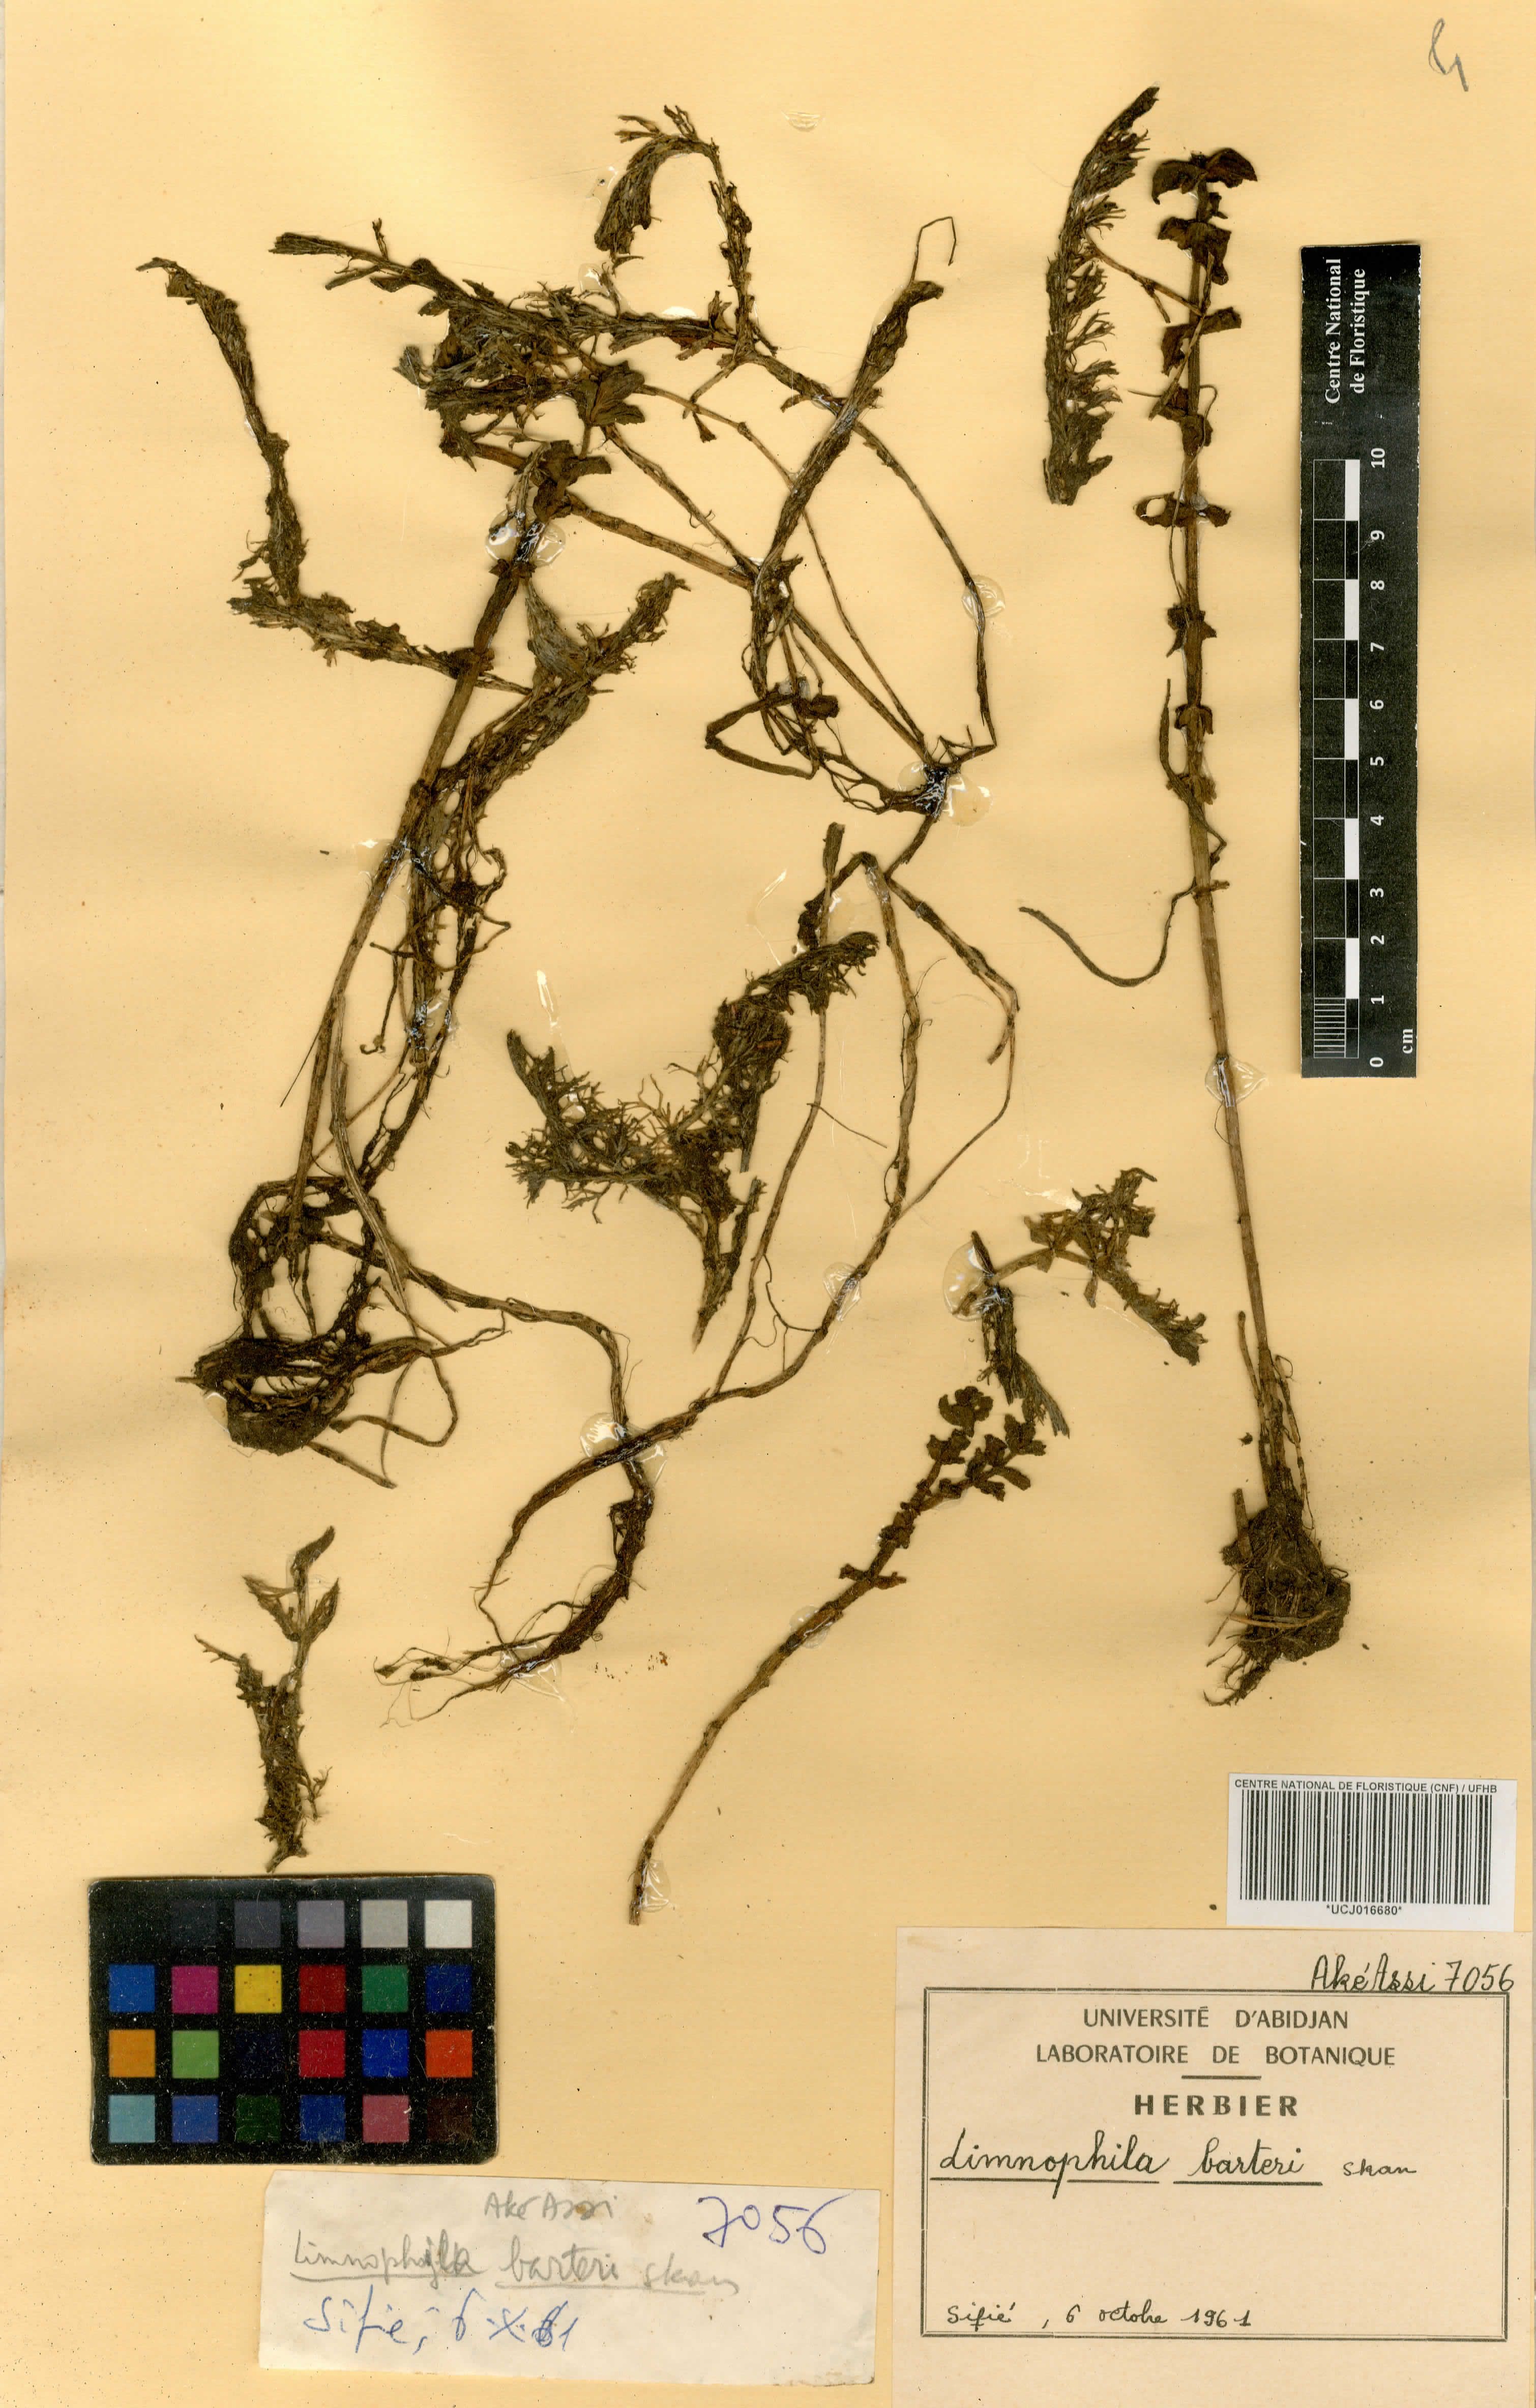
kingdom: Plantae
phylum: Tracheophyta
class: Magnoliopsida
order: Lamiales
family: Plantaginaceae
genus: Limnophila
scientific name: Limnophila barteri
